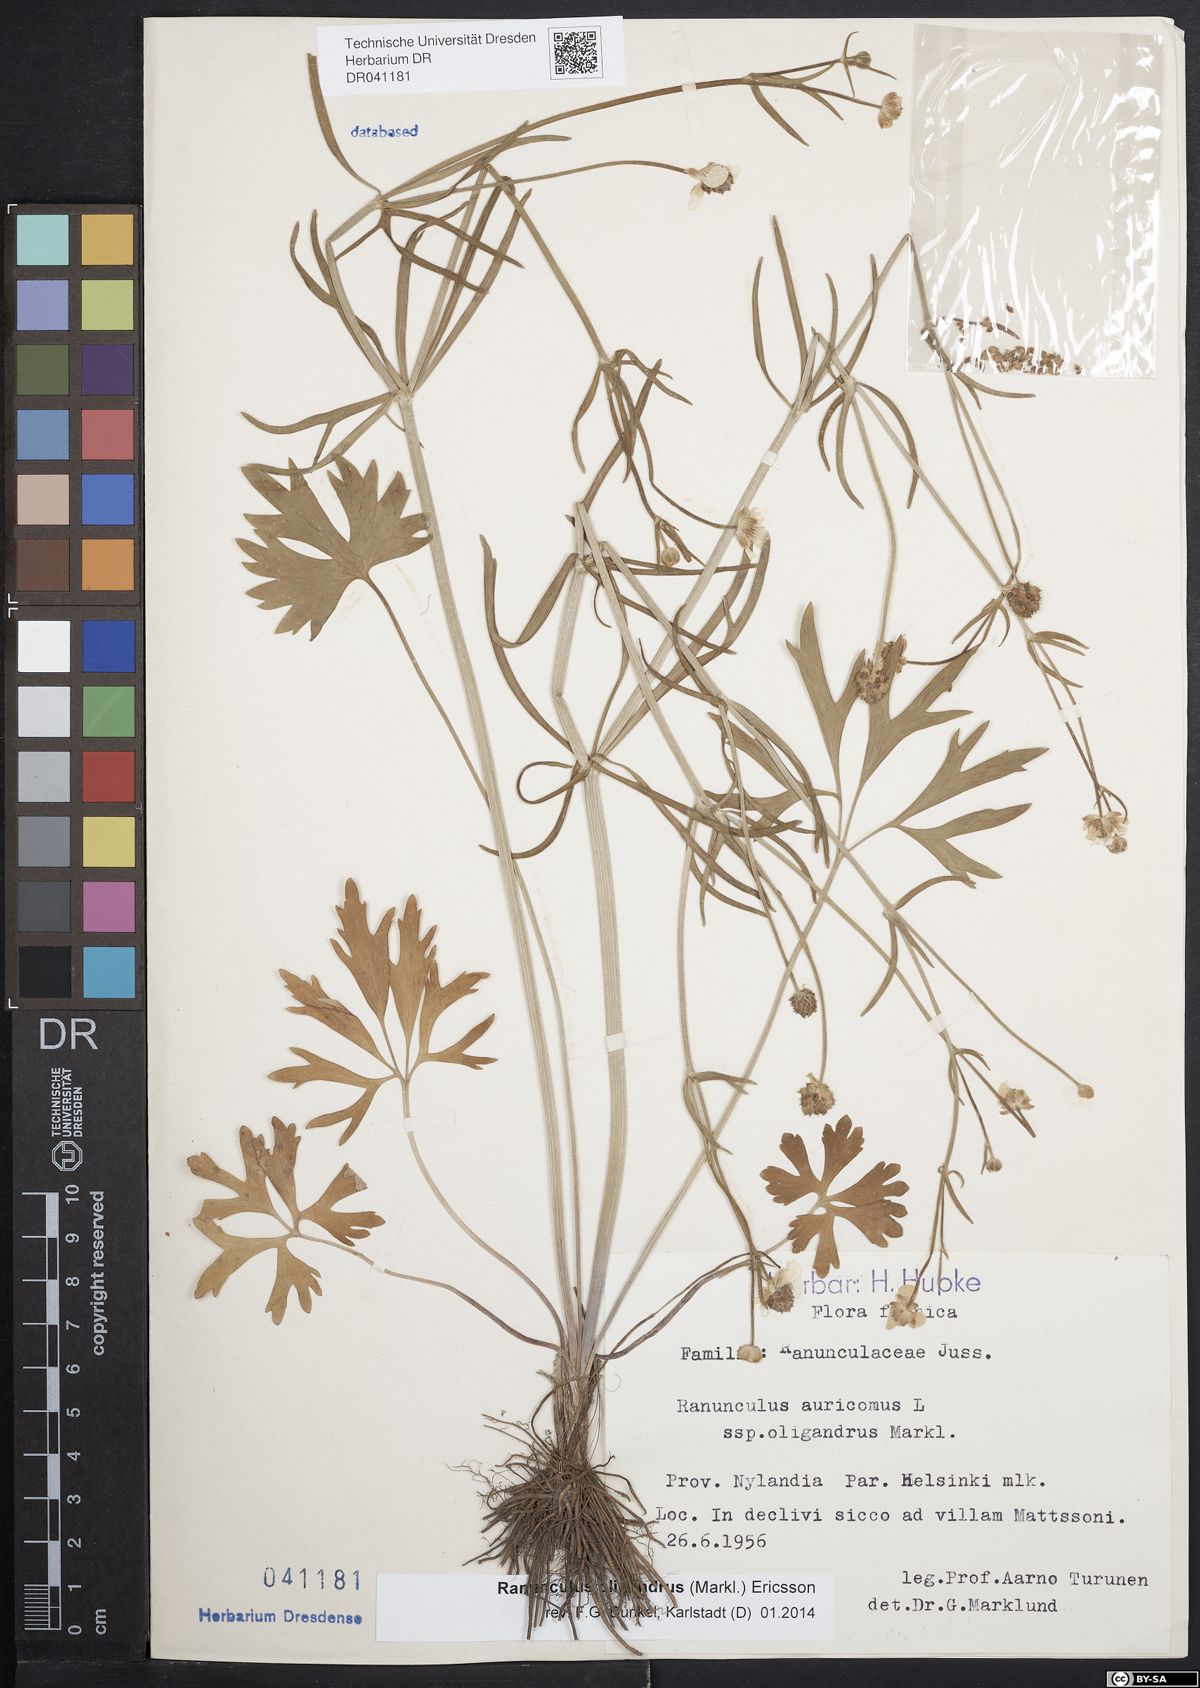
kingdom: Plantae
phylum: Tracheophyta
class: Magnoliopsida
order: Ranunculales
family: Ranunculaceae
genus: Ranunculus
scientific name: Ranunculus oligandrus
